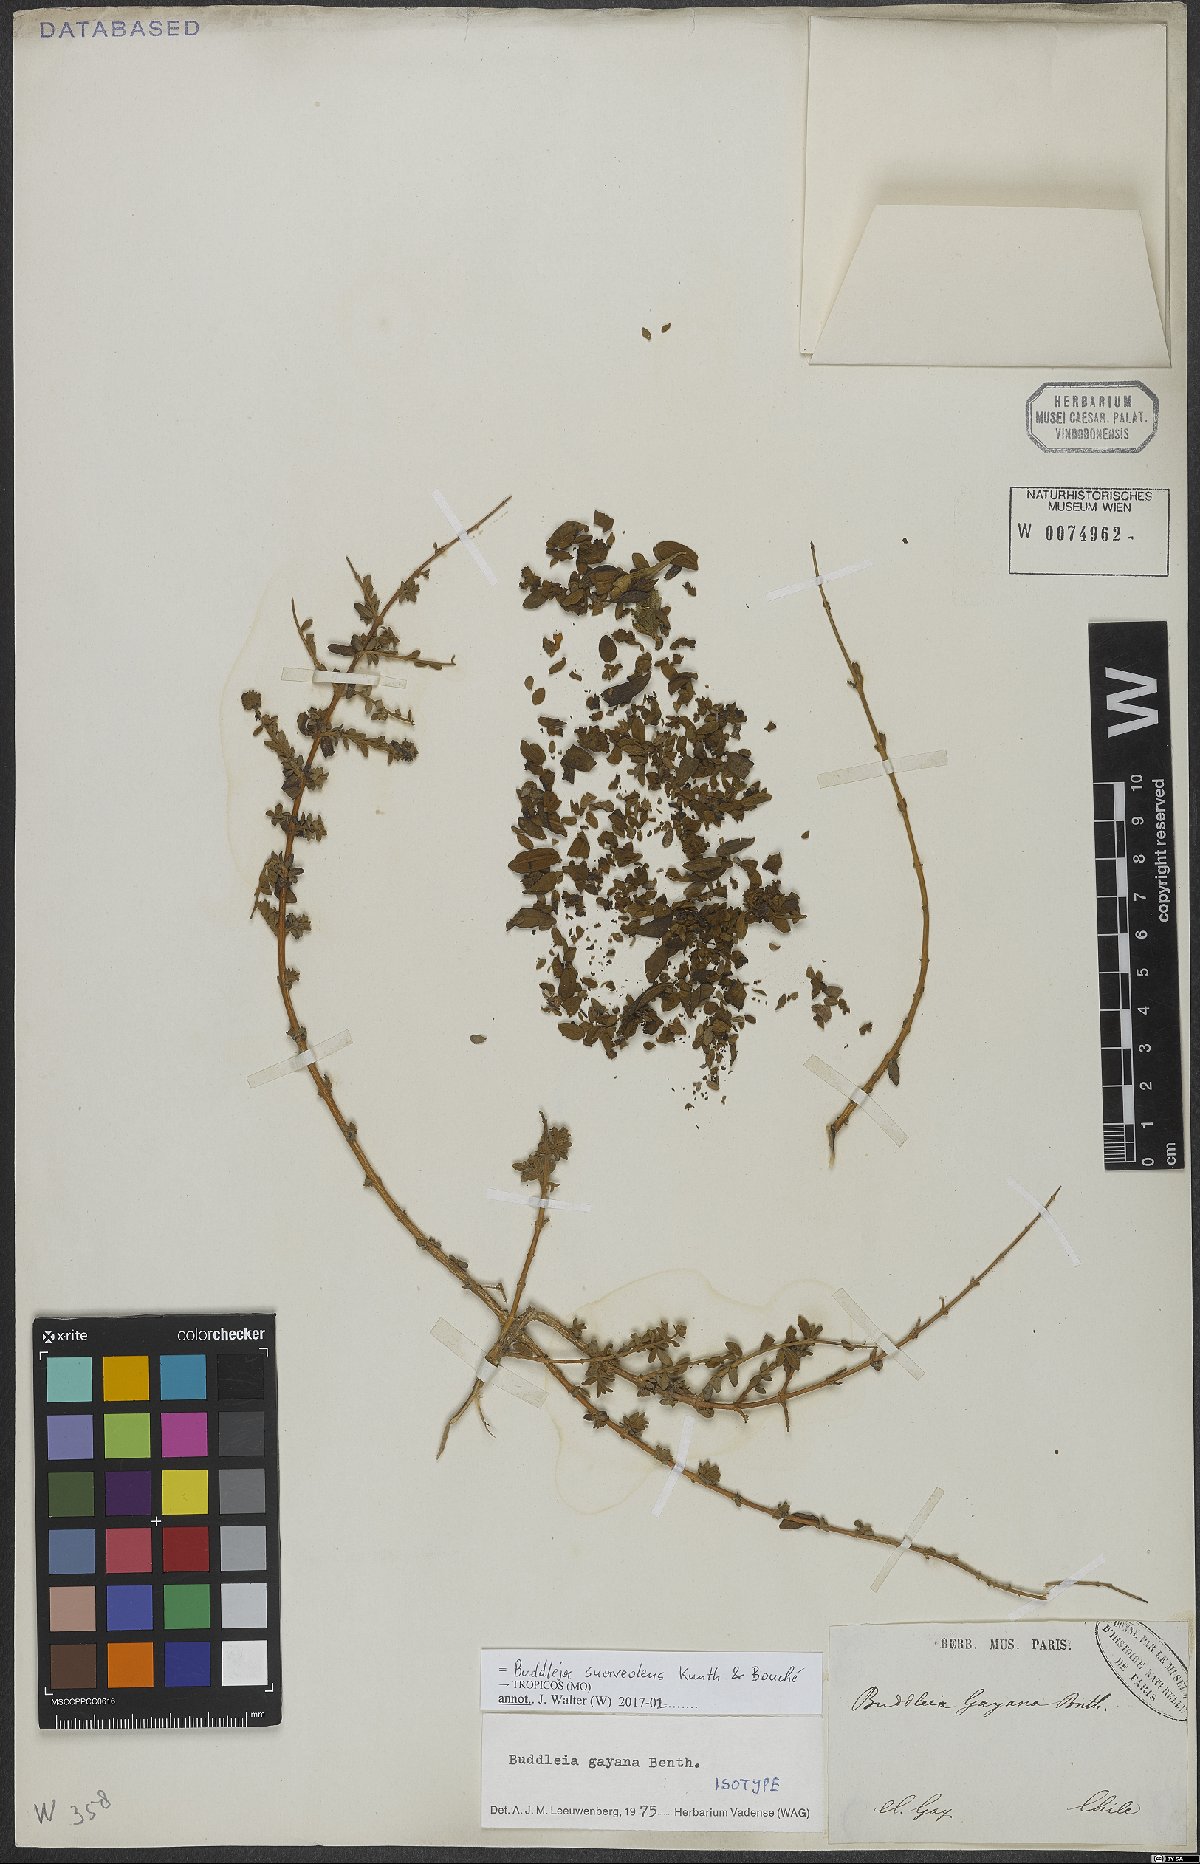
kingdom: Plantae
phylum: Tracheophyta
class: Magnoliopsida
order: Lamiales
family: Scrophulariaceae
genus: Buddleja
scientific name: Buddleja suaveolens
